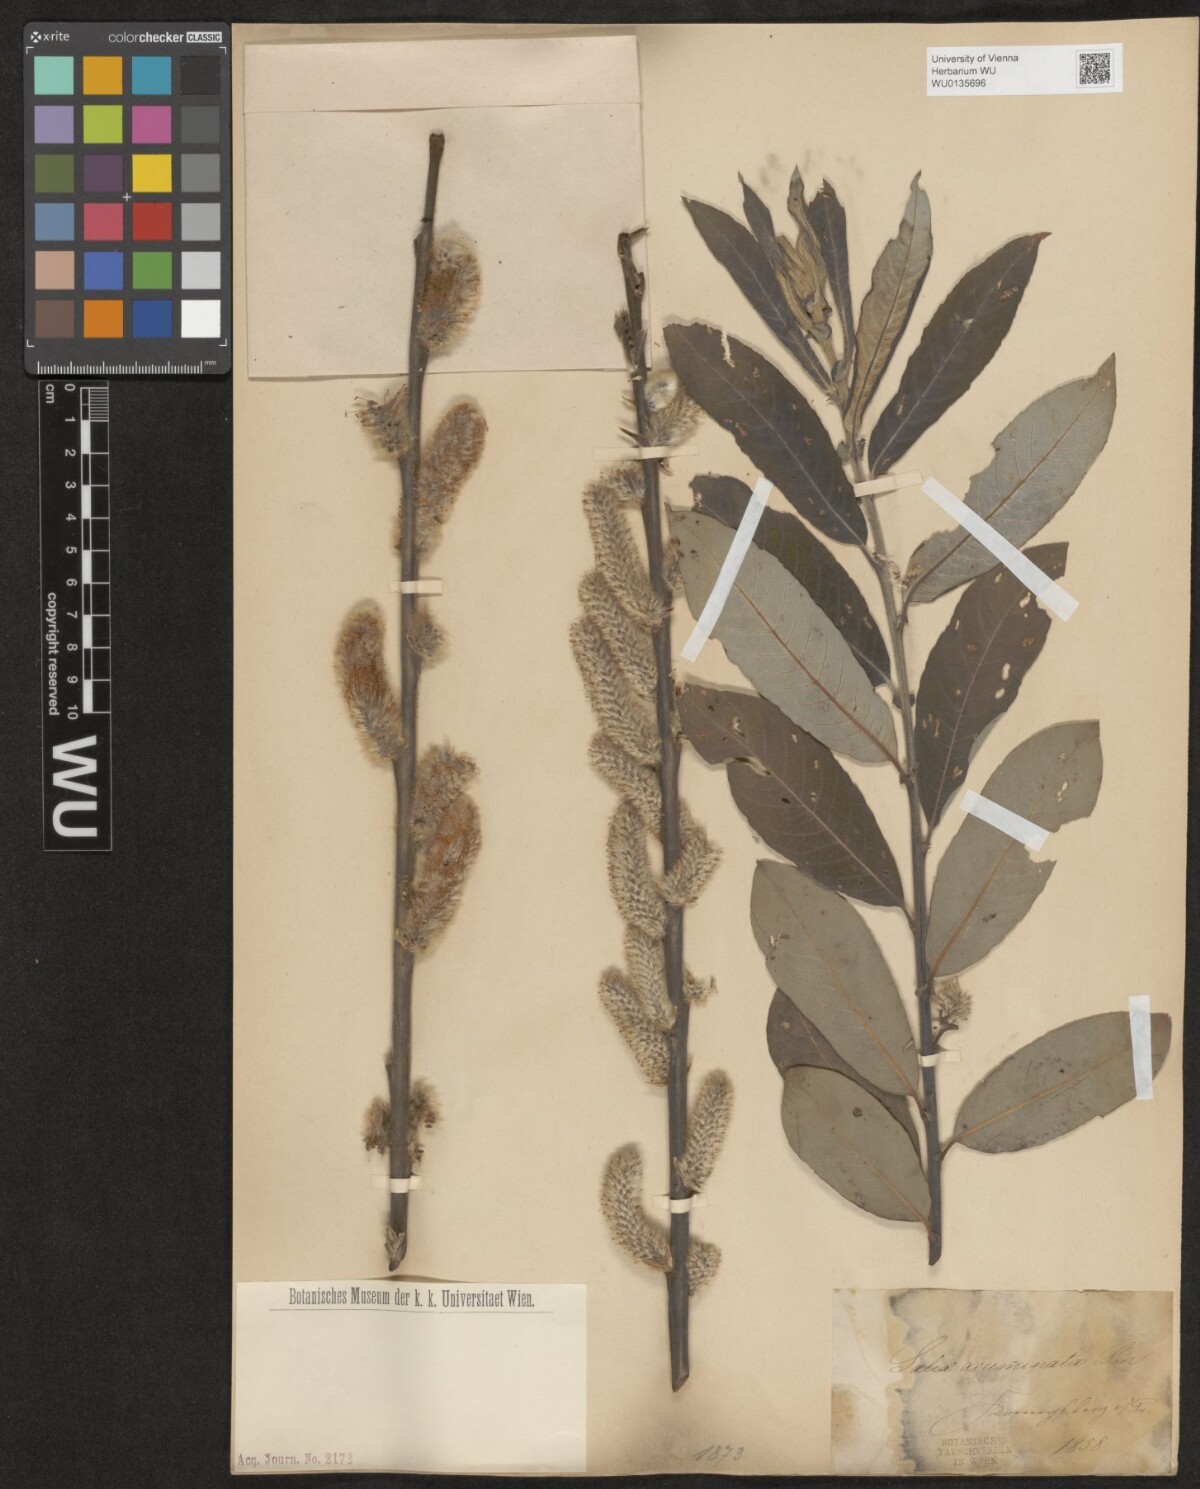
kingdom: Plantae
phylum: Tracheophyta
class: Magnoliopsida
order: Malpighiales
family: Salicaceae
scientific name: Salicaceae
